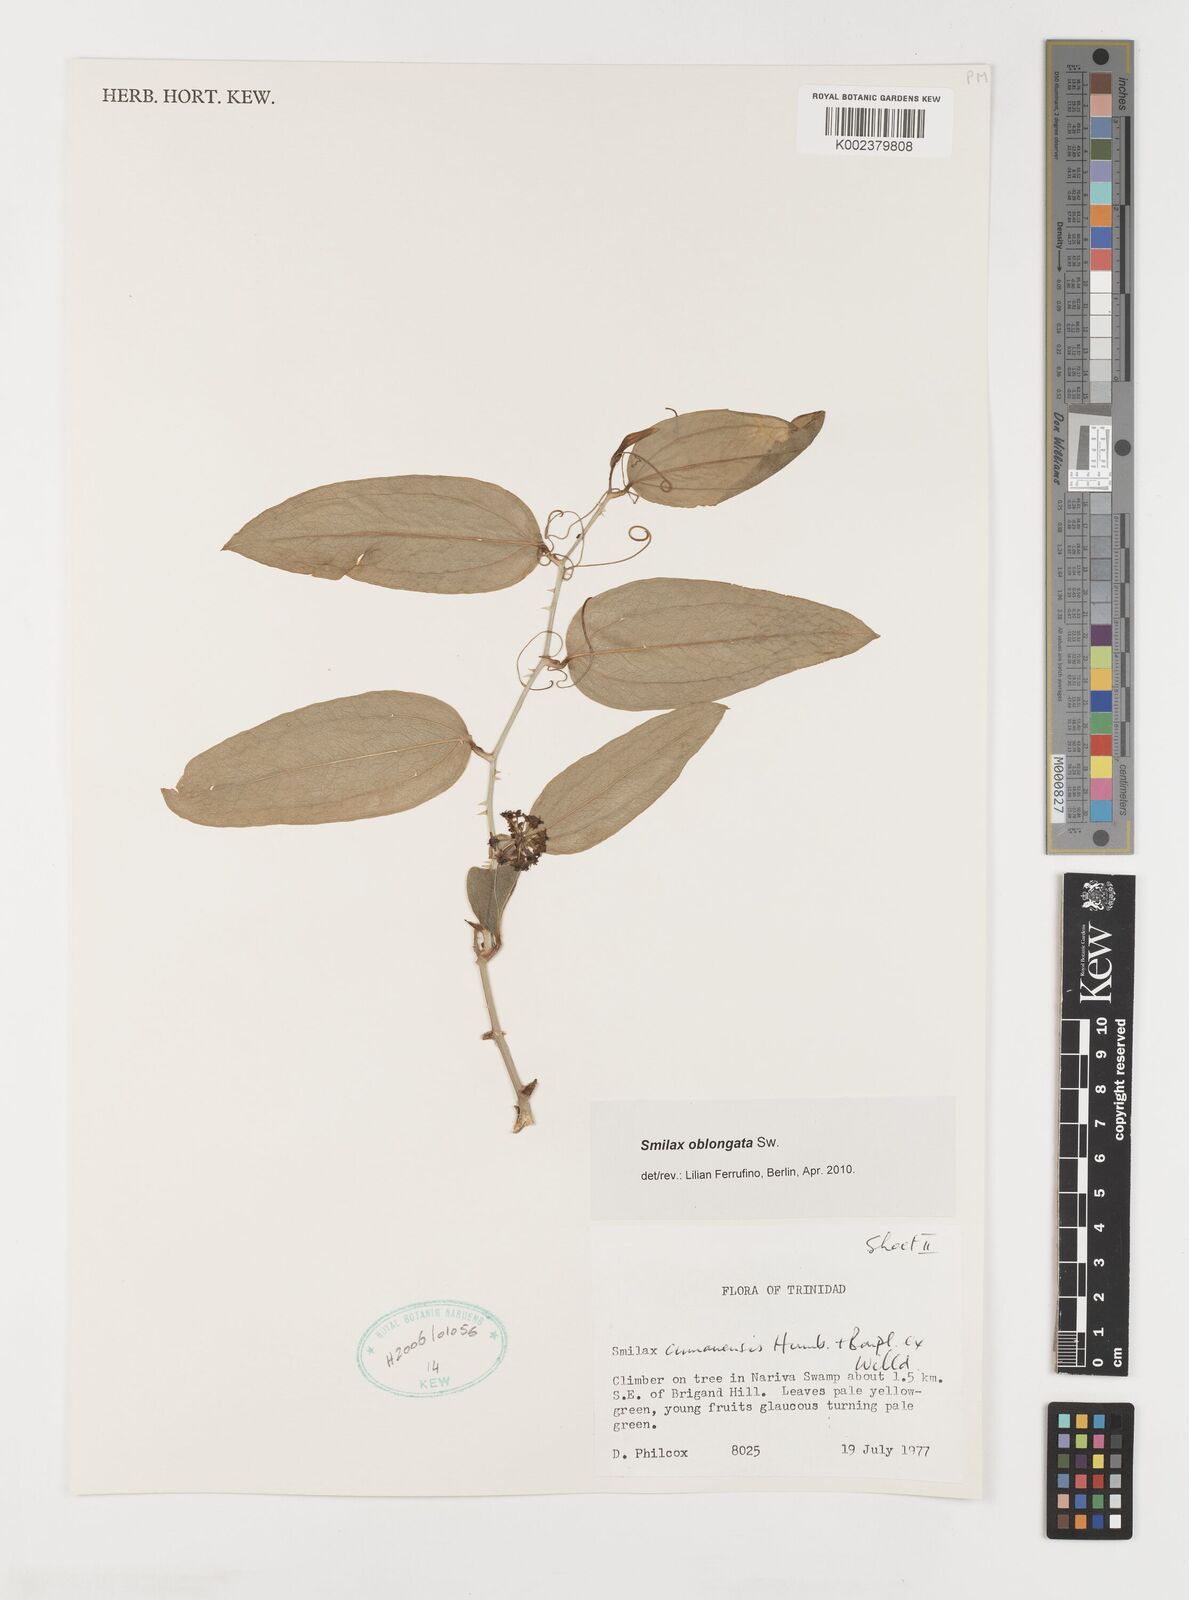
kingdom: Plantae
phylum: Tracheophyta
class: Liliopsida
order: Liliales
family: Smilacaceae
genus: Smilax
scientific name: Smilax oblongata
